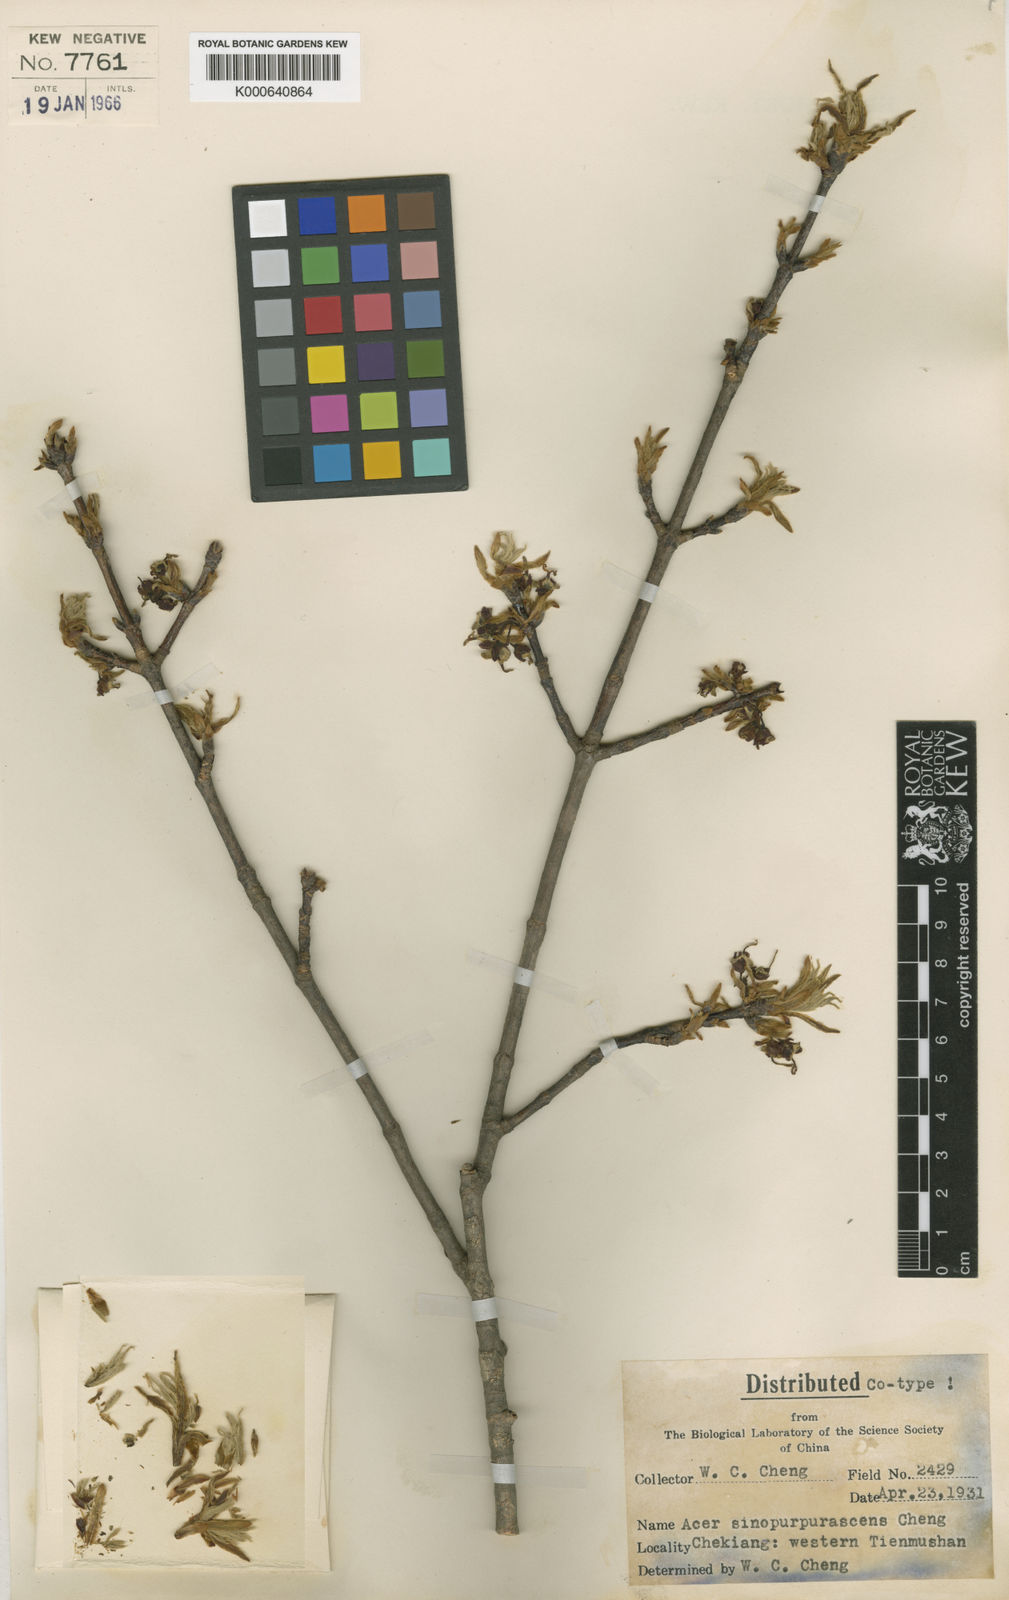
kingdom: Plantae
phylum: Tracheophyta
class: Magnoliopsida
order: Sapindales
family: Sapindaceae
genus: Acer
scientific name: Acer sinopurpurascens
